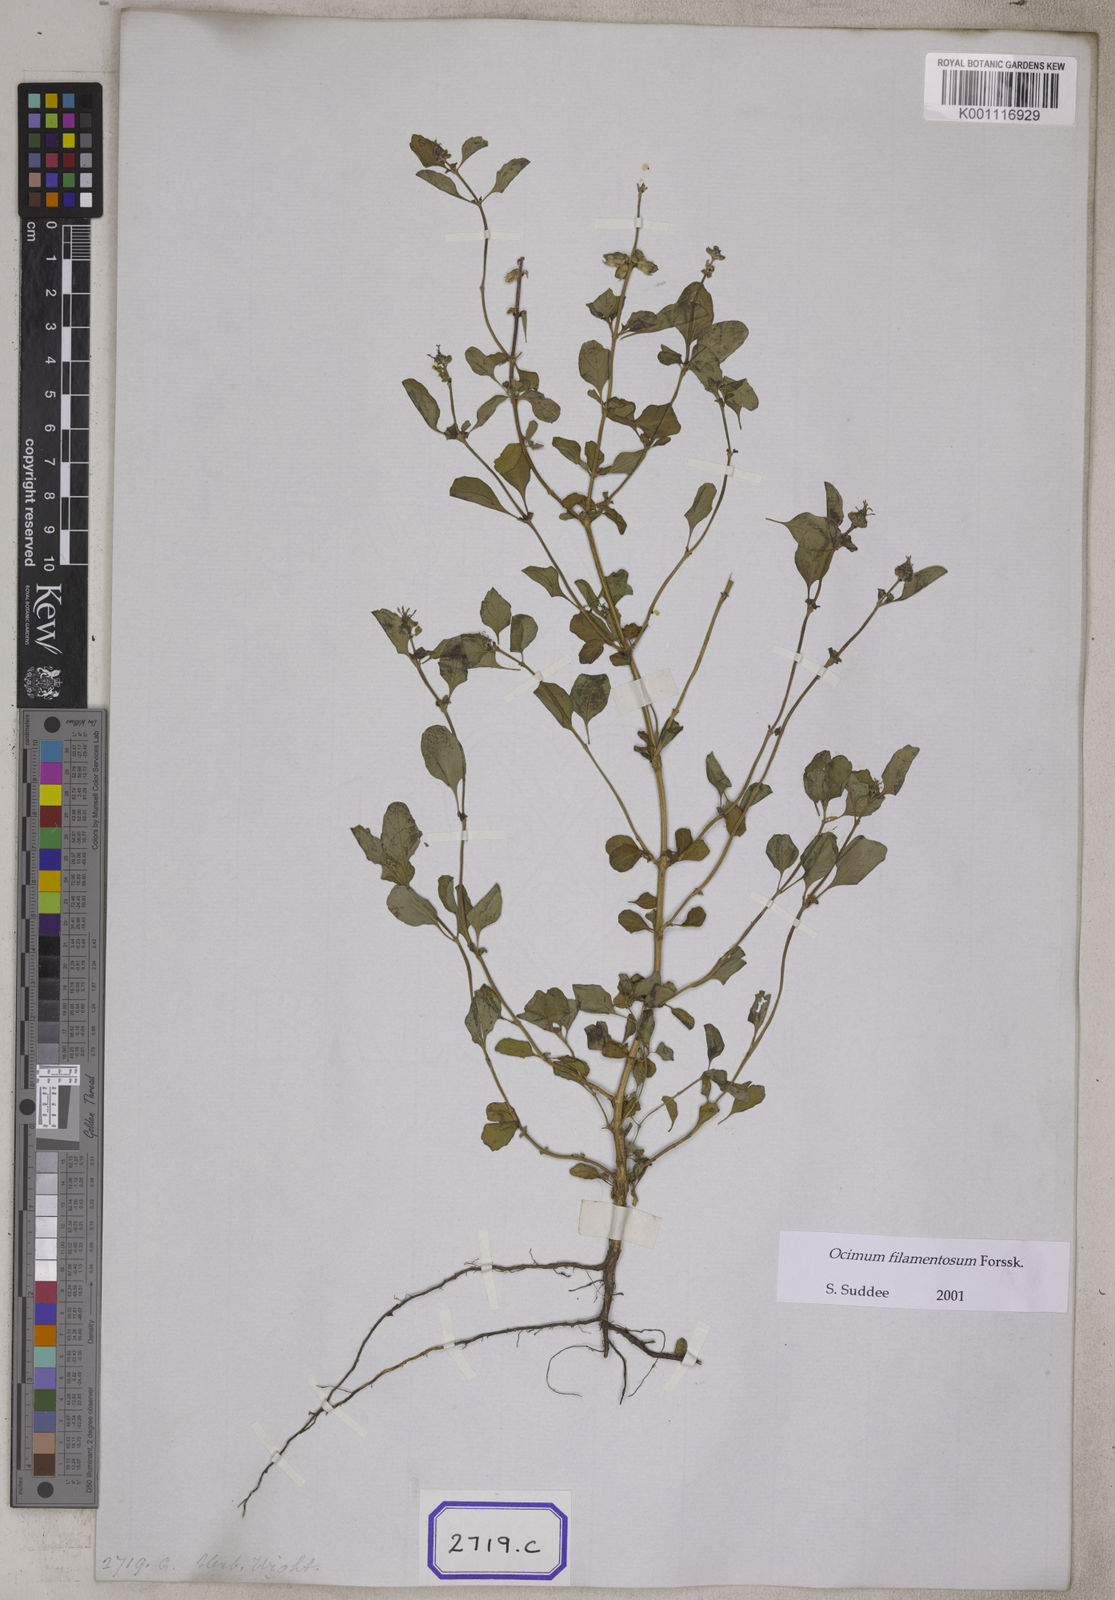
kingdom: Plantae
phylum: Tracheophyta
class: Magnoliopsida
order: Lamiales
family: Lamiaceae
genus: Ocimum
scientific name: Ocimum filamentosum
